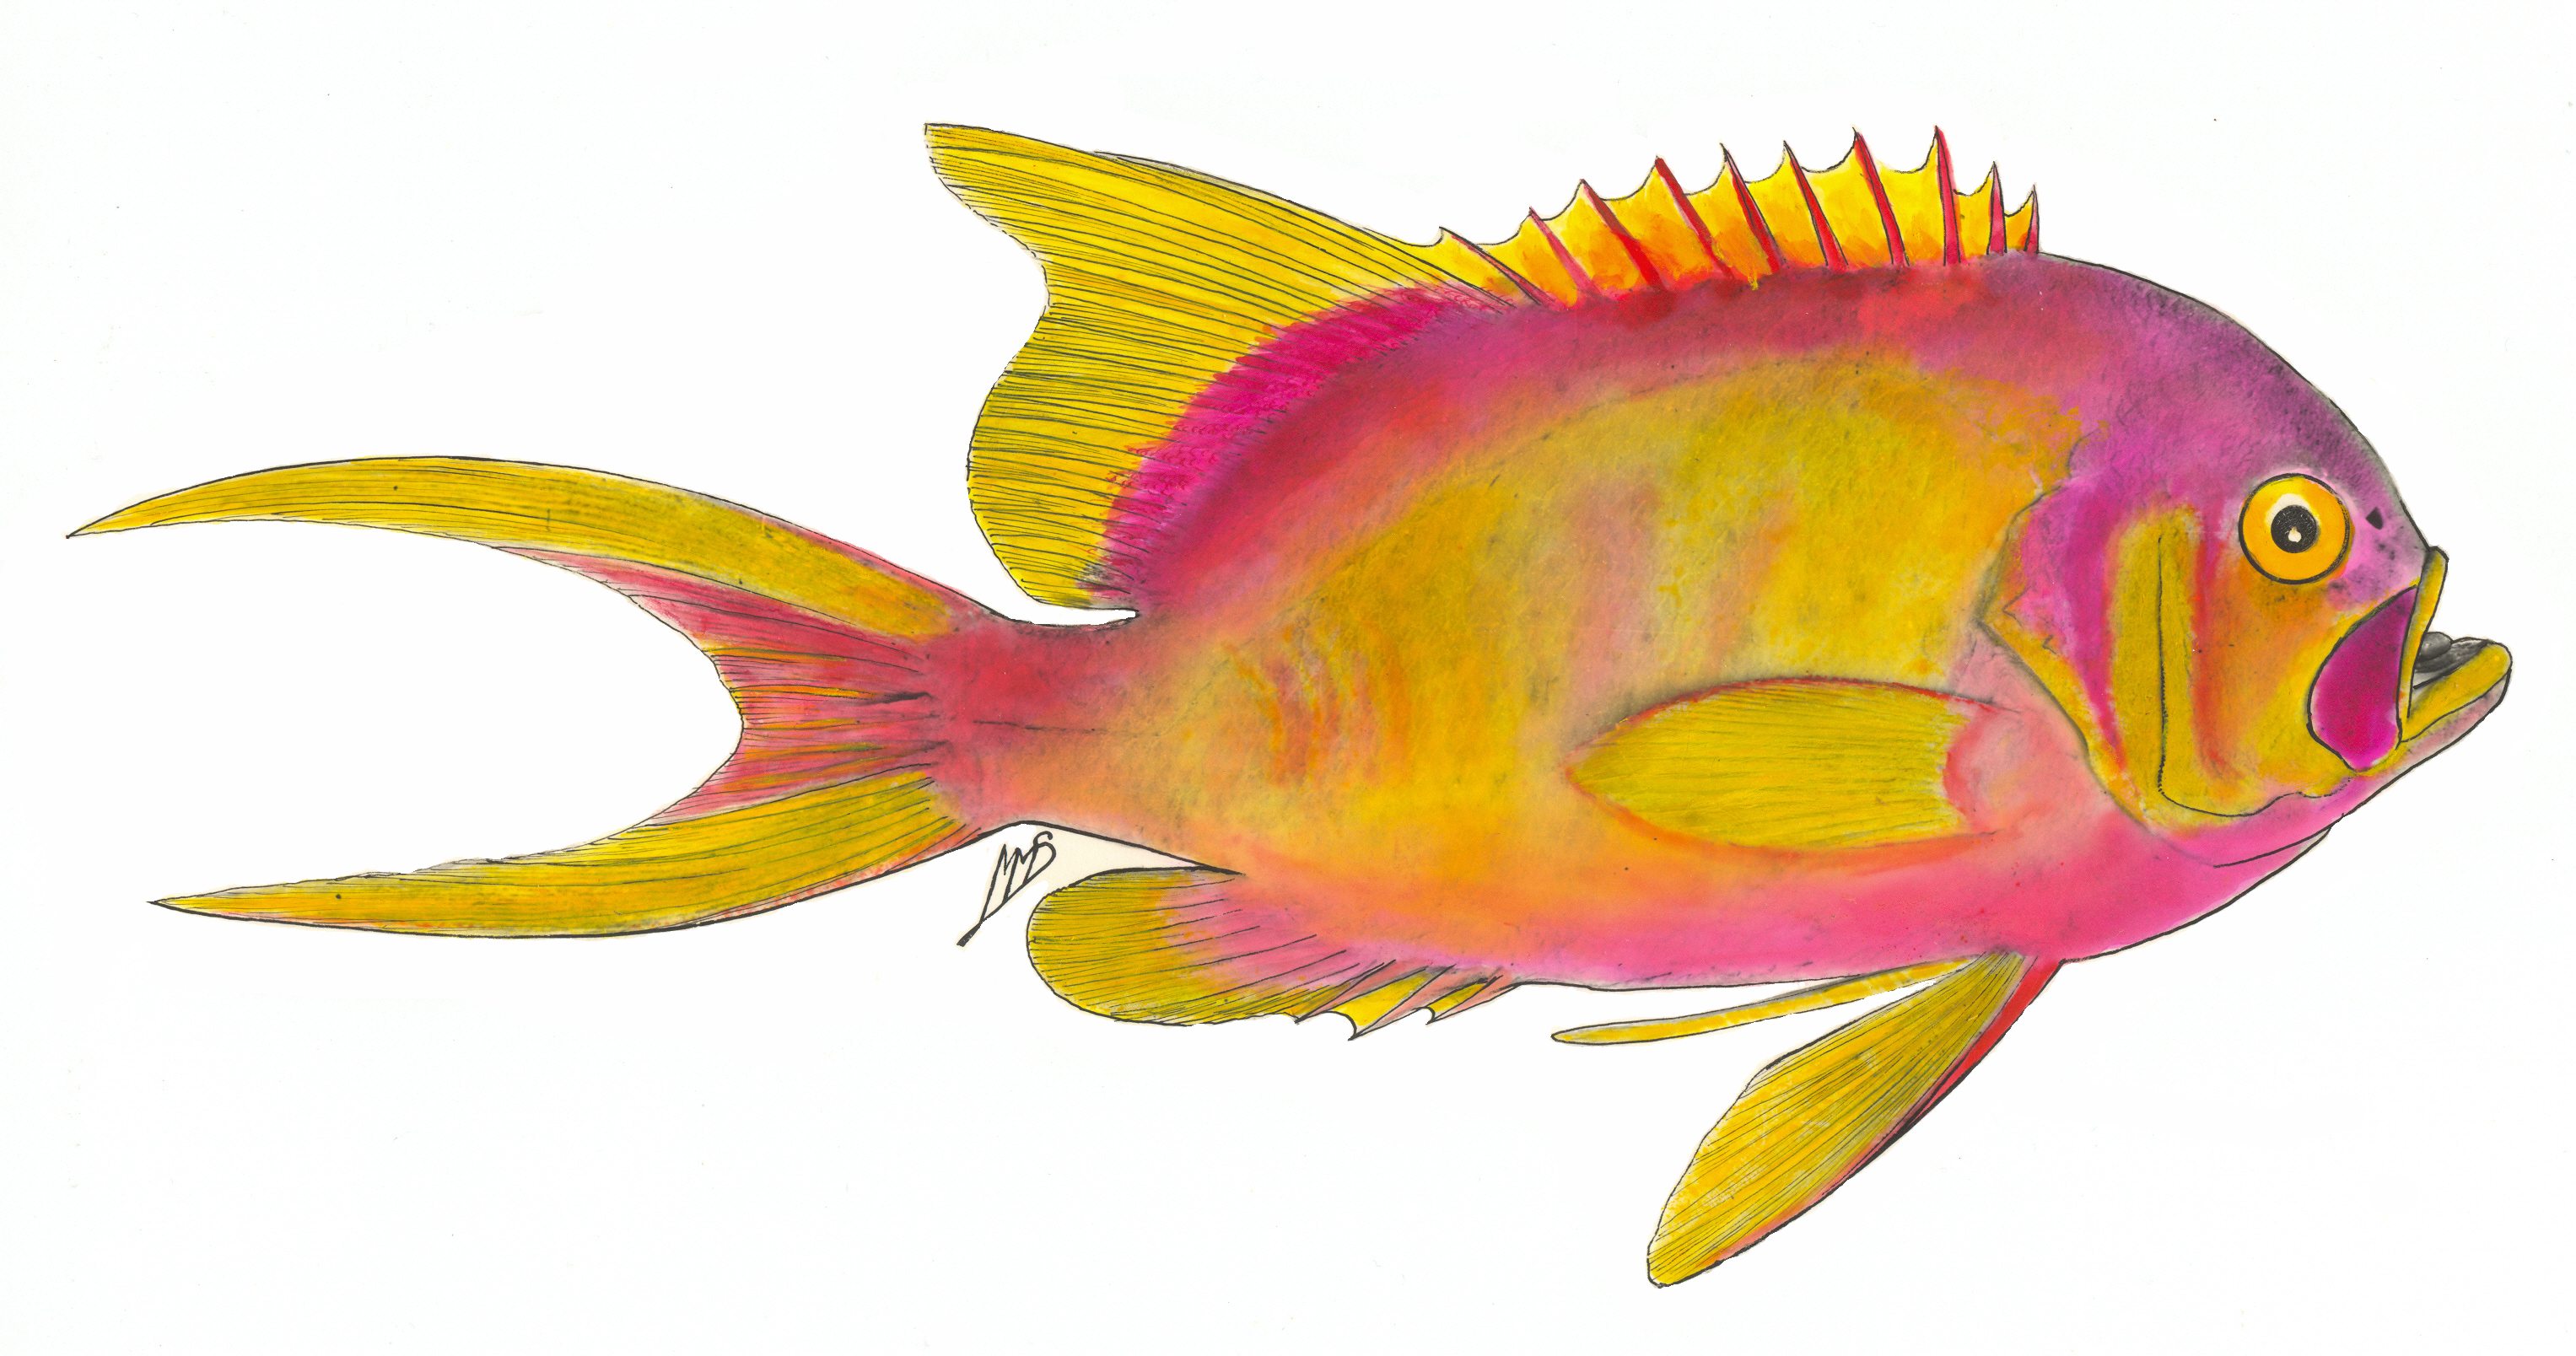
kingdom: Animalia
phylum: Chordata
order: Perciformes
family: Serranidae
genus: Meganthias
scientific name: Meganthias natalensis
